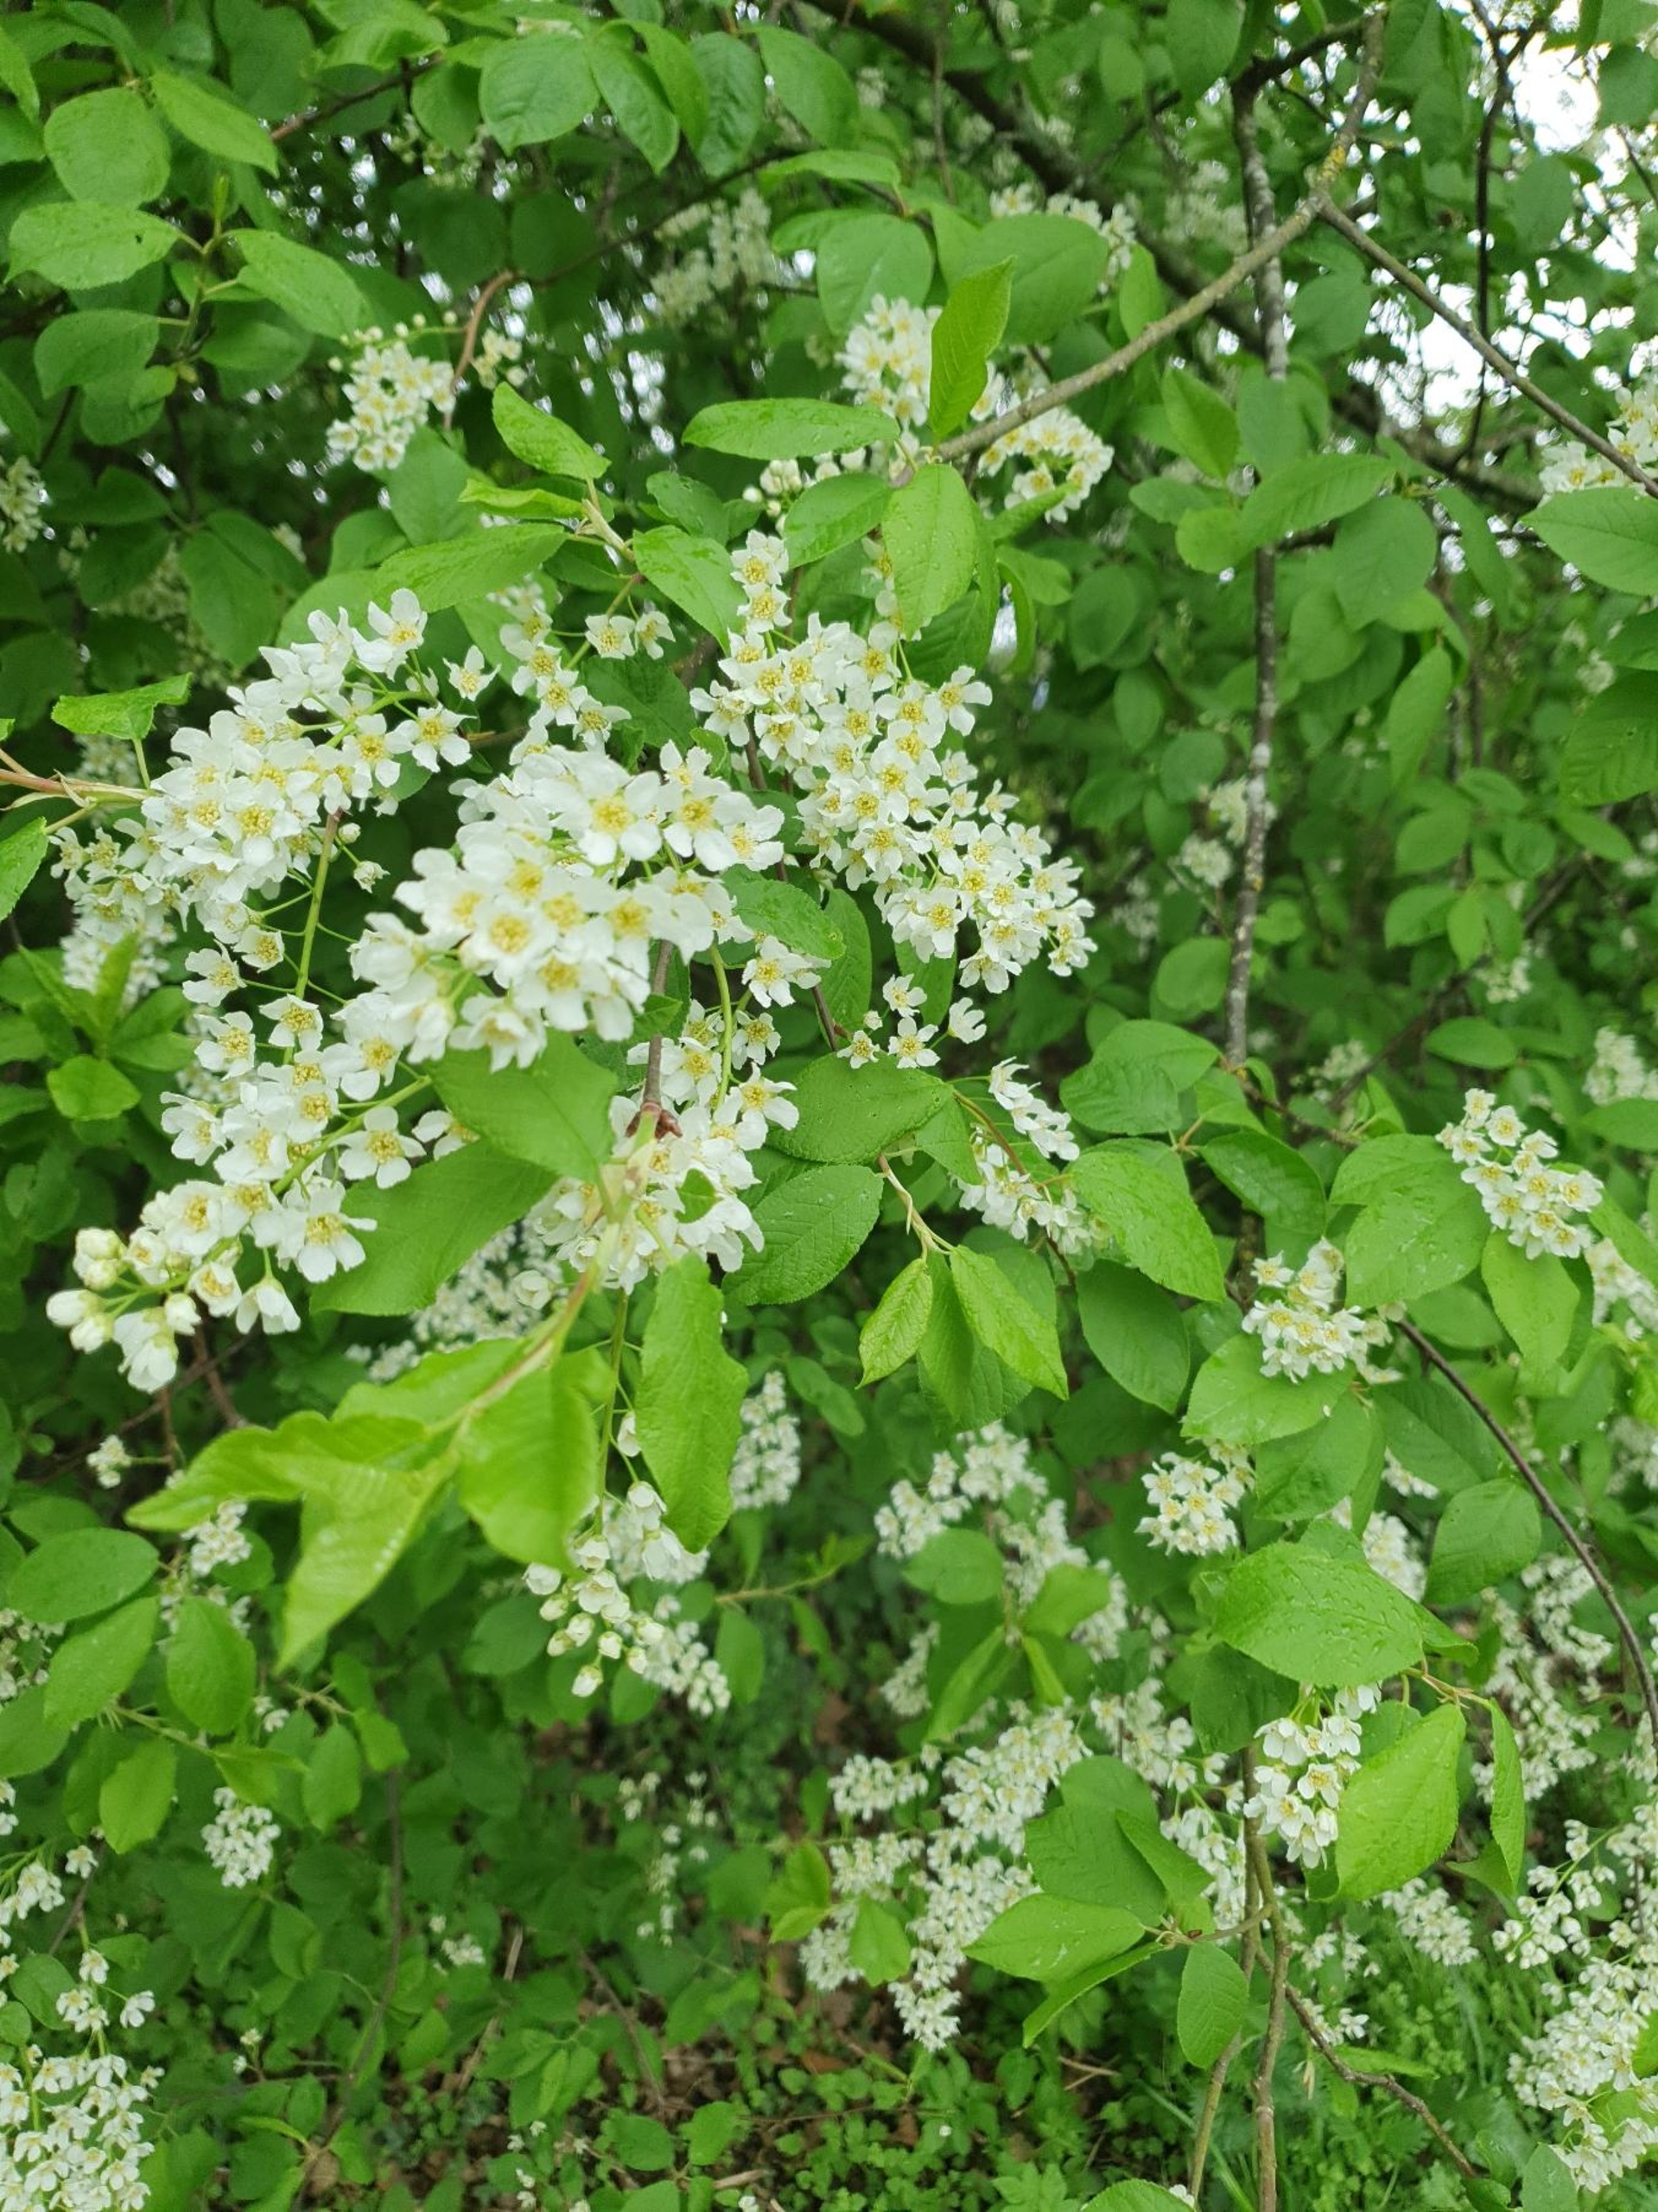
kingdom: Plantae
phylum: Tracheophyta
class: Magnoliopsida
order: Rosales
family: Rosaceae
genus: Prunus
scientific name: Prunus padus
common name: Almindelig hæg
